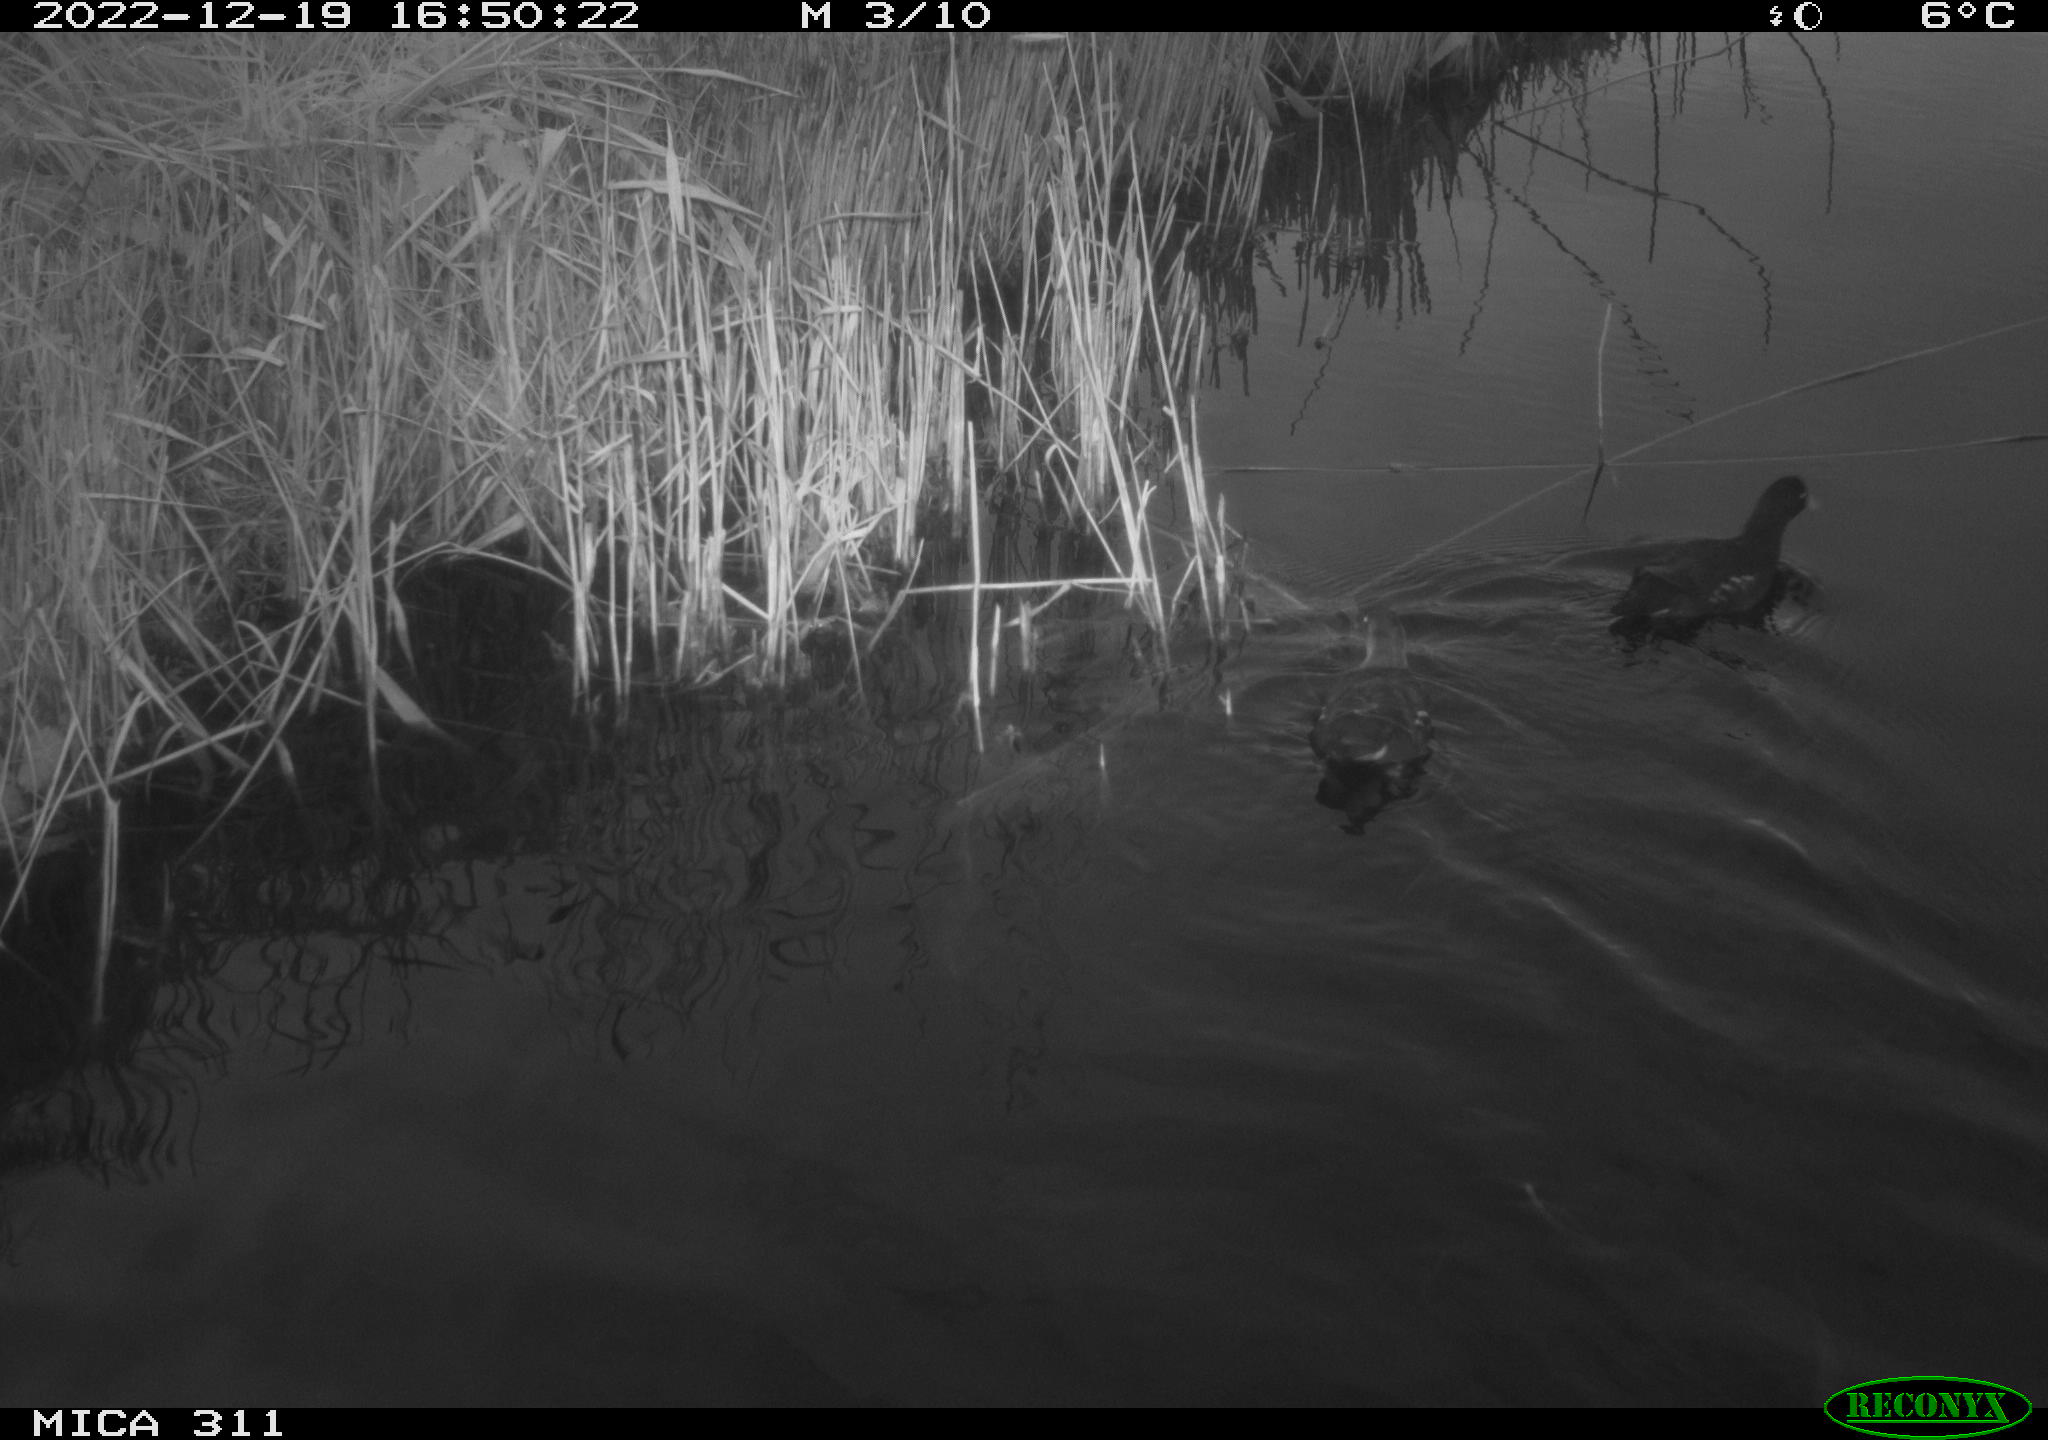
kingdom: Animalia
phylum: Chordata
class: Aves
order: Gruiformes
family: Rallidae
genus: Gallinula
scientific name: Gallinula chloropus
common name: Common moorhen
